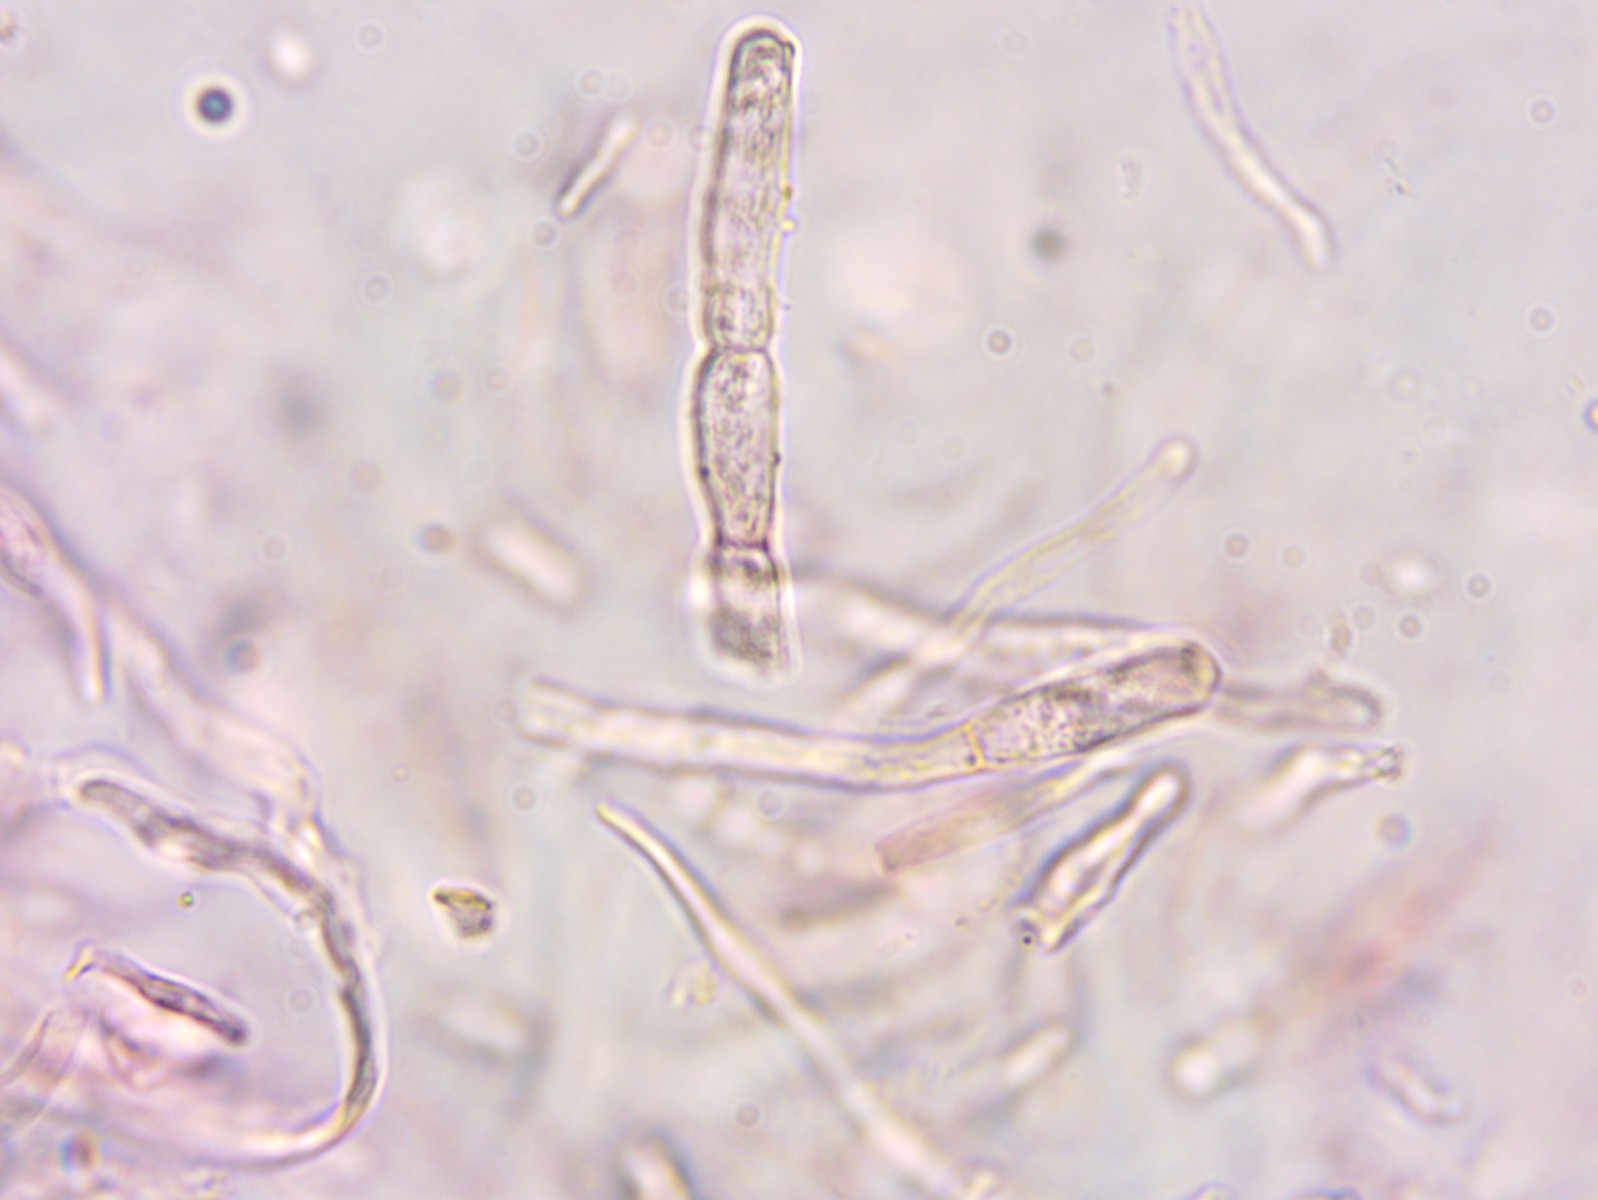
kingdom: Fungi
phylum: Basidiomycota
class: Agaricomycetes
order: Russulales
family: Russulaceae
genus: Russula
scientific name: Russula viscida
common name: knippe-skørhat
